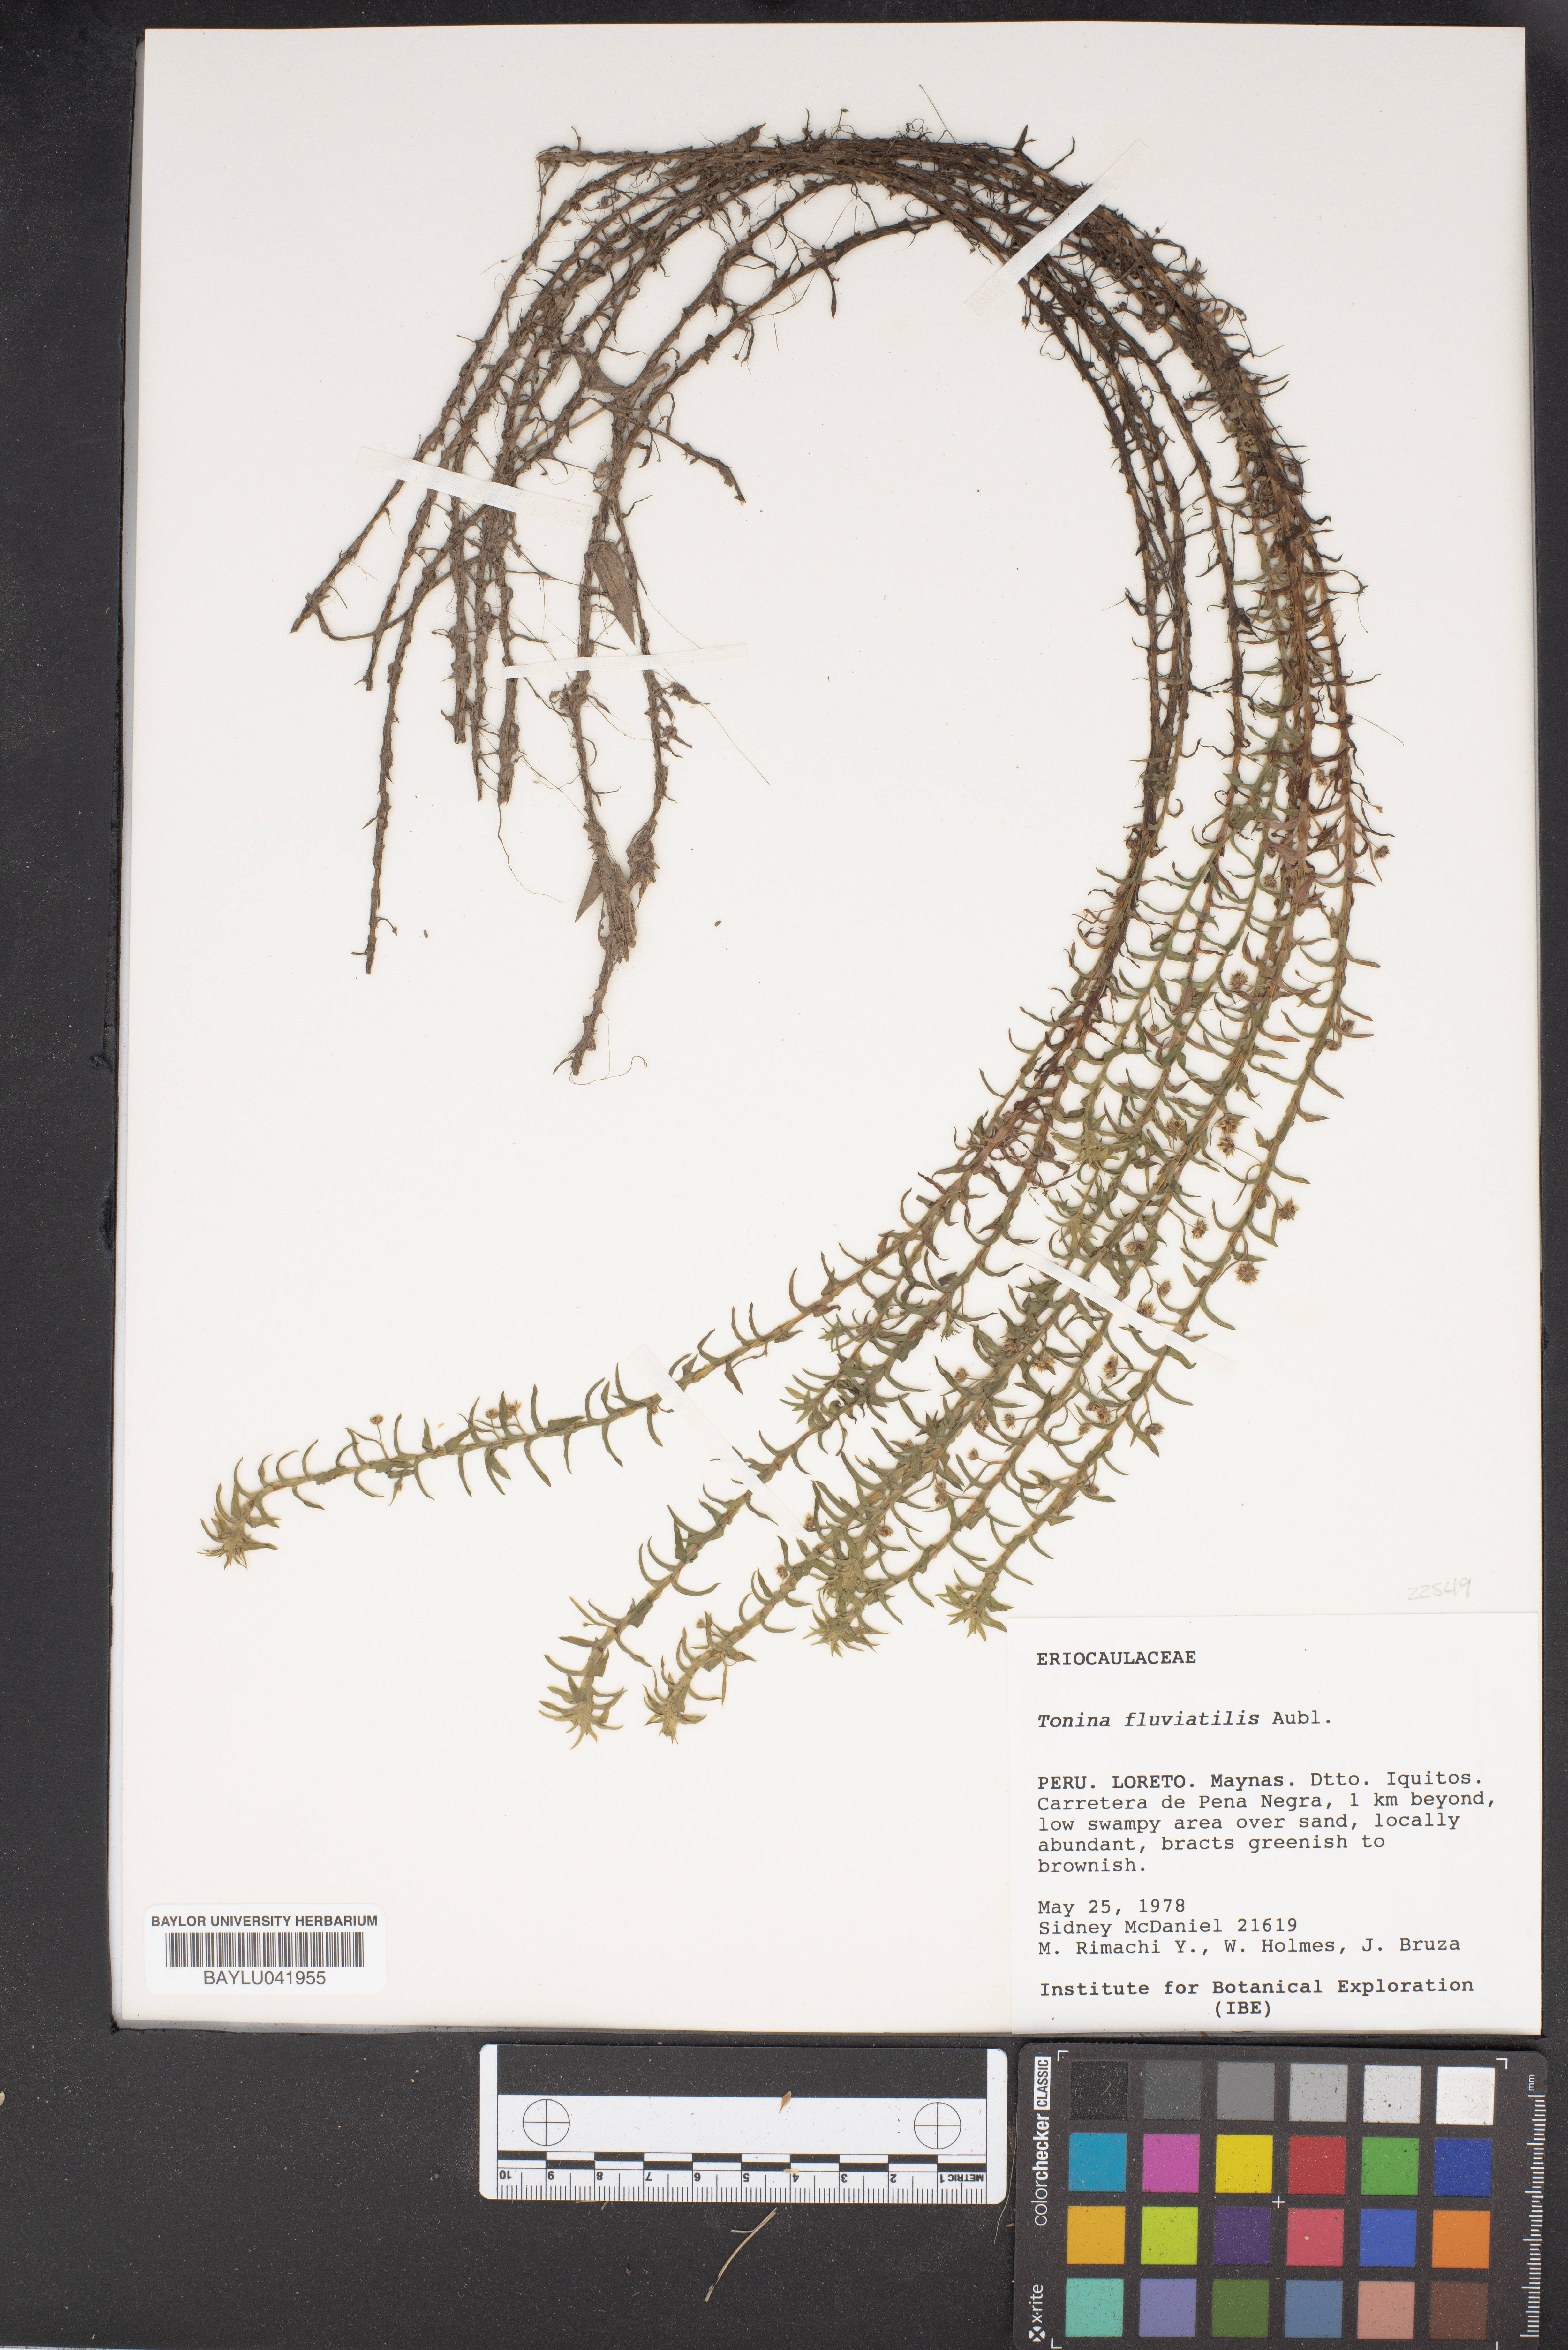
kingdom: Plantae
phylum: Tracheophyta
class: Liliopsida
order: Poales
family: Eriocaulaceae
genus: Paepalanthus
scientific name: Paepalanthus fluviatilis
